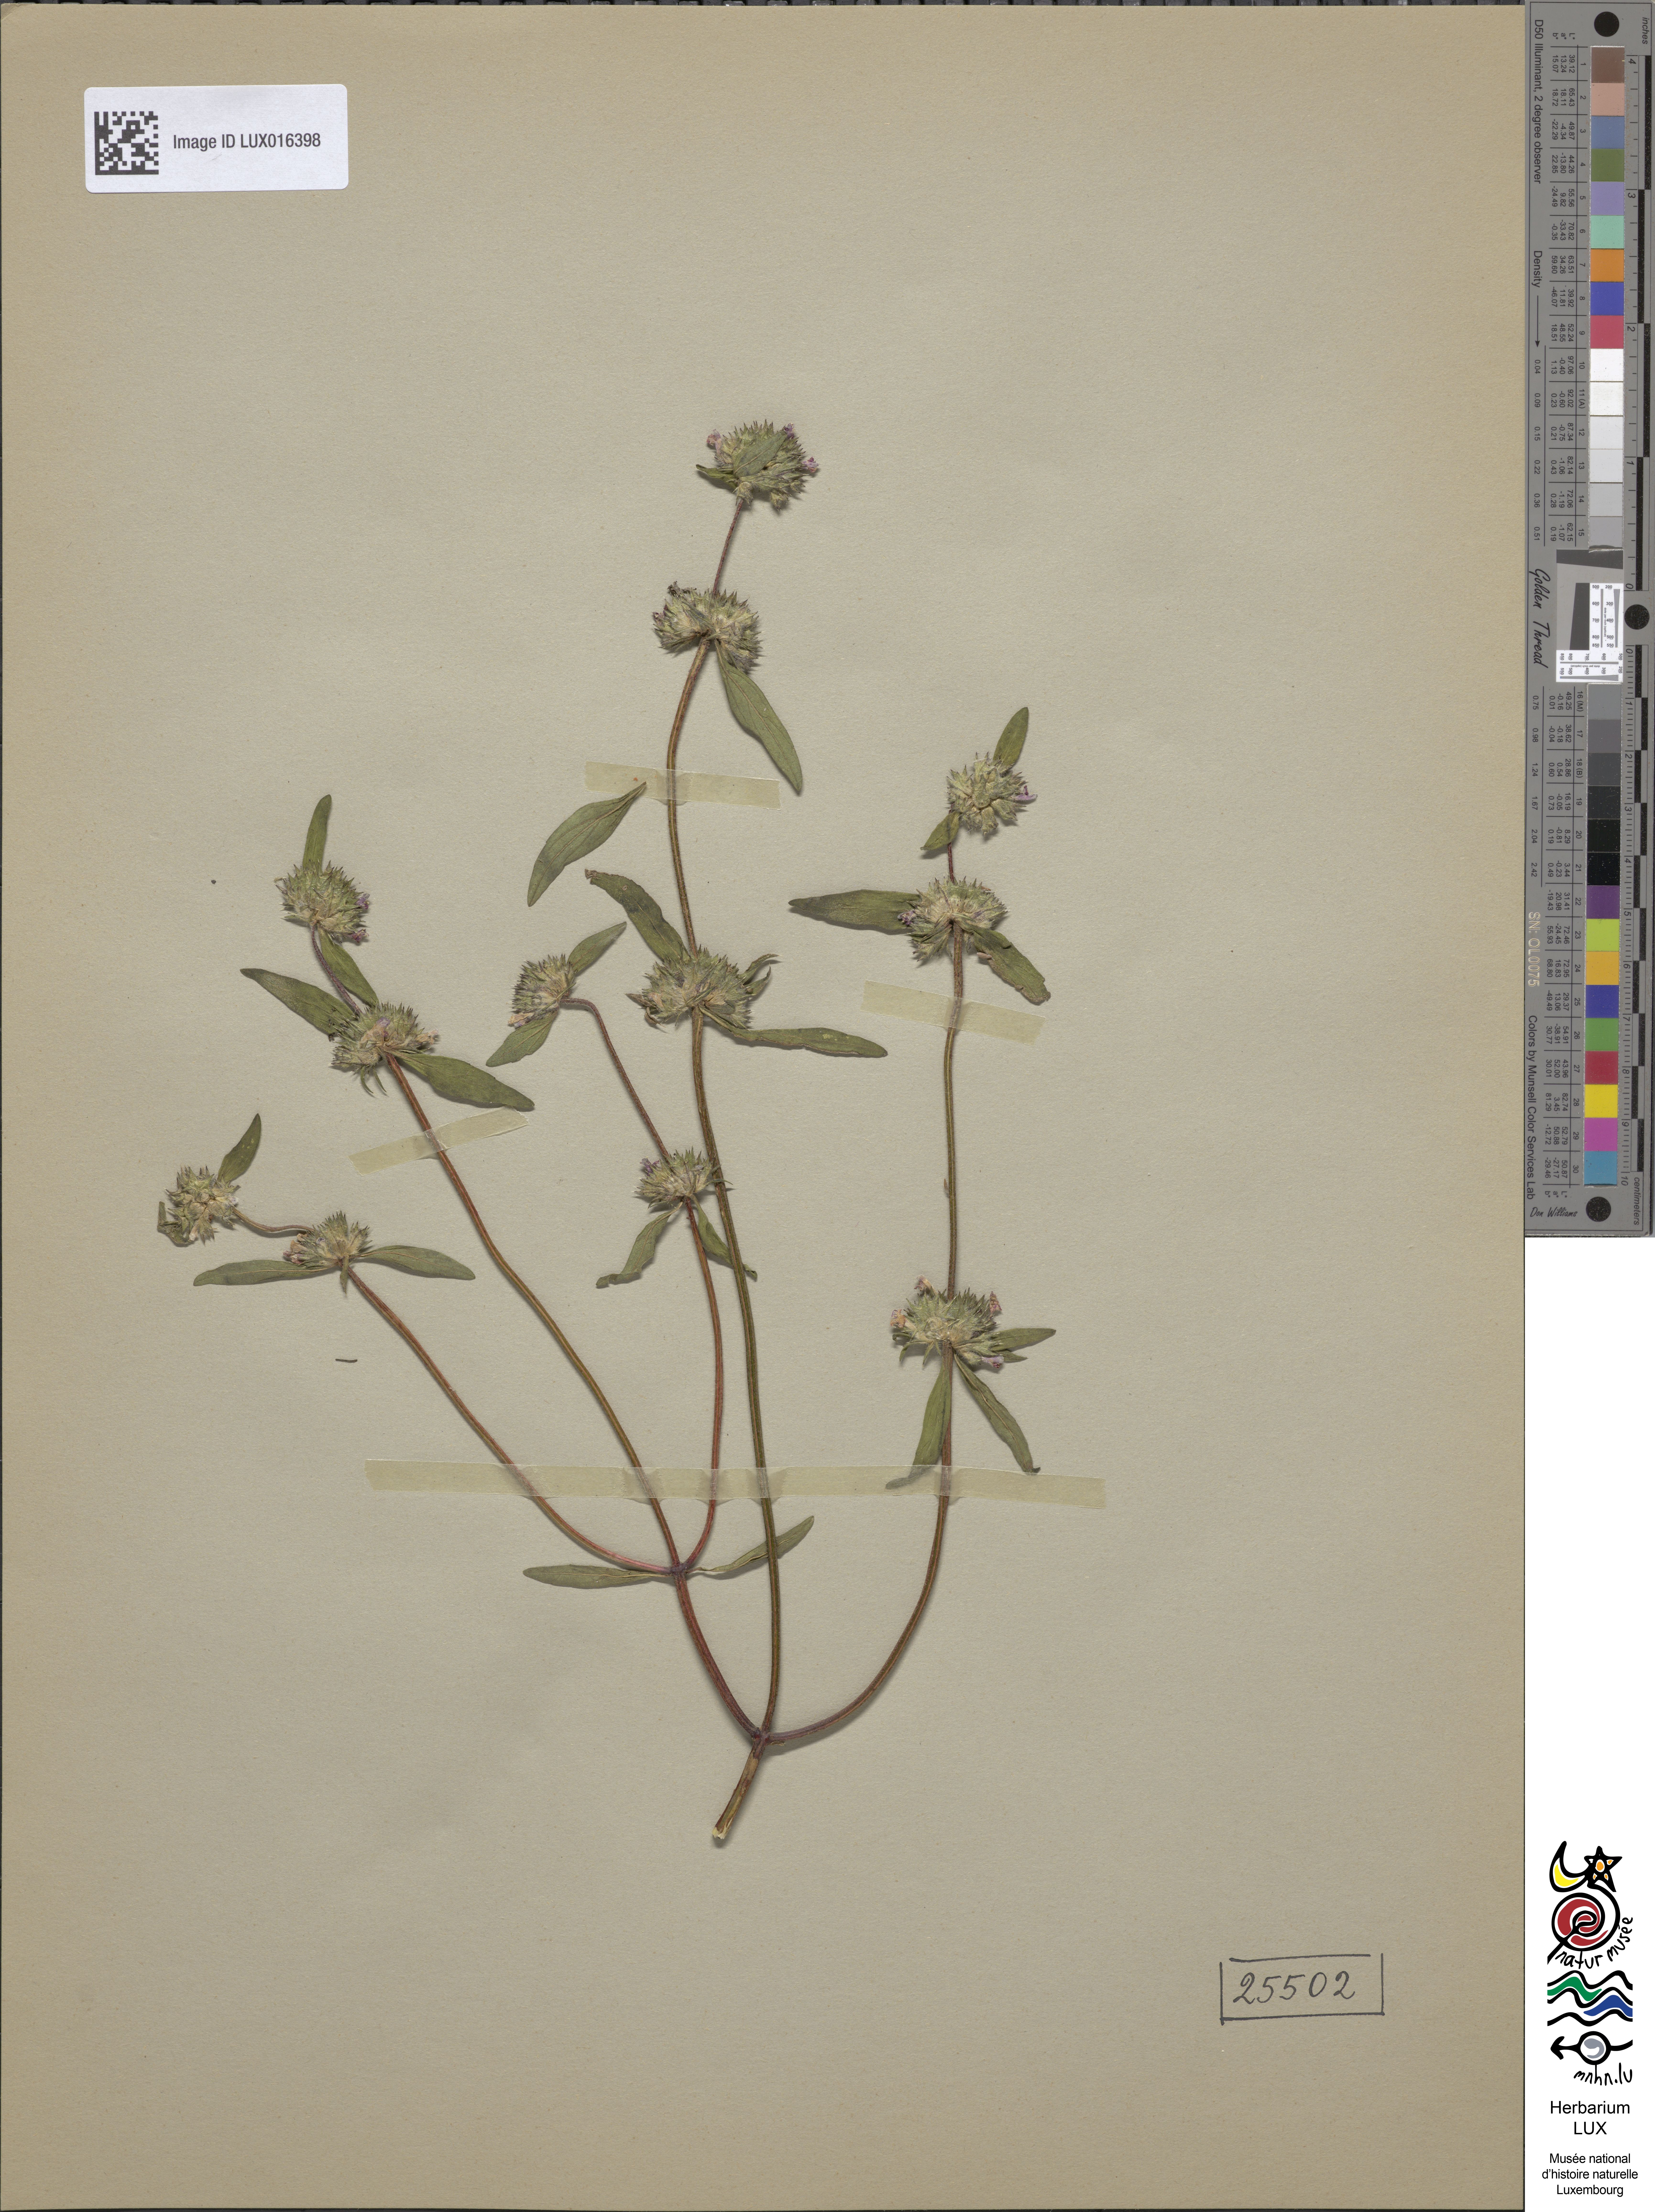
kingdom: Plantae
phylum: Tracheophyta
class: Magnoliopsida
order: Lamiales
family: Lamiaceae
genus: Galeopsis
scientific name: Galeopsis angustifolia
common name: Red hemp-nettle
